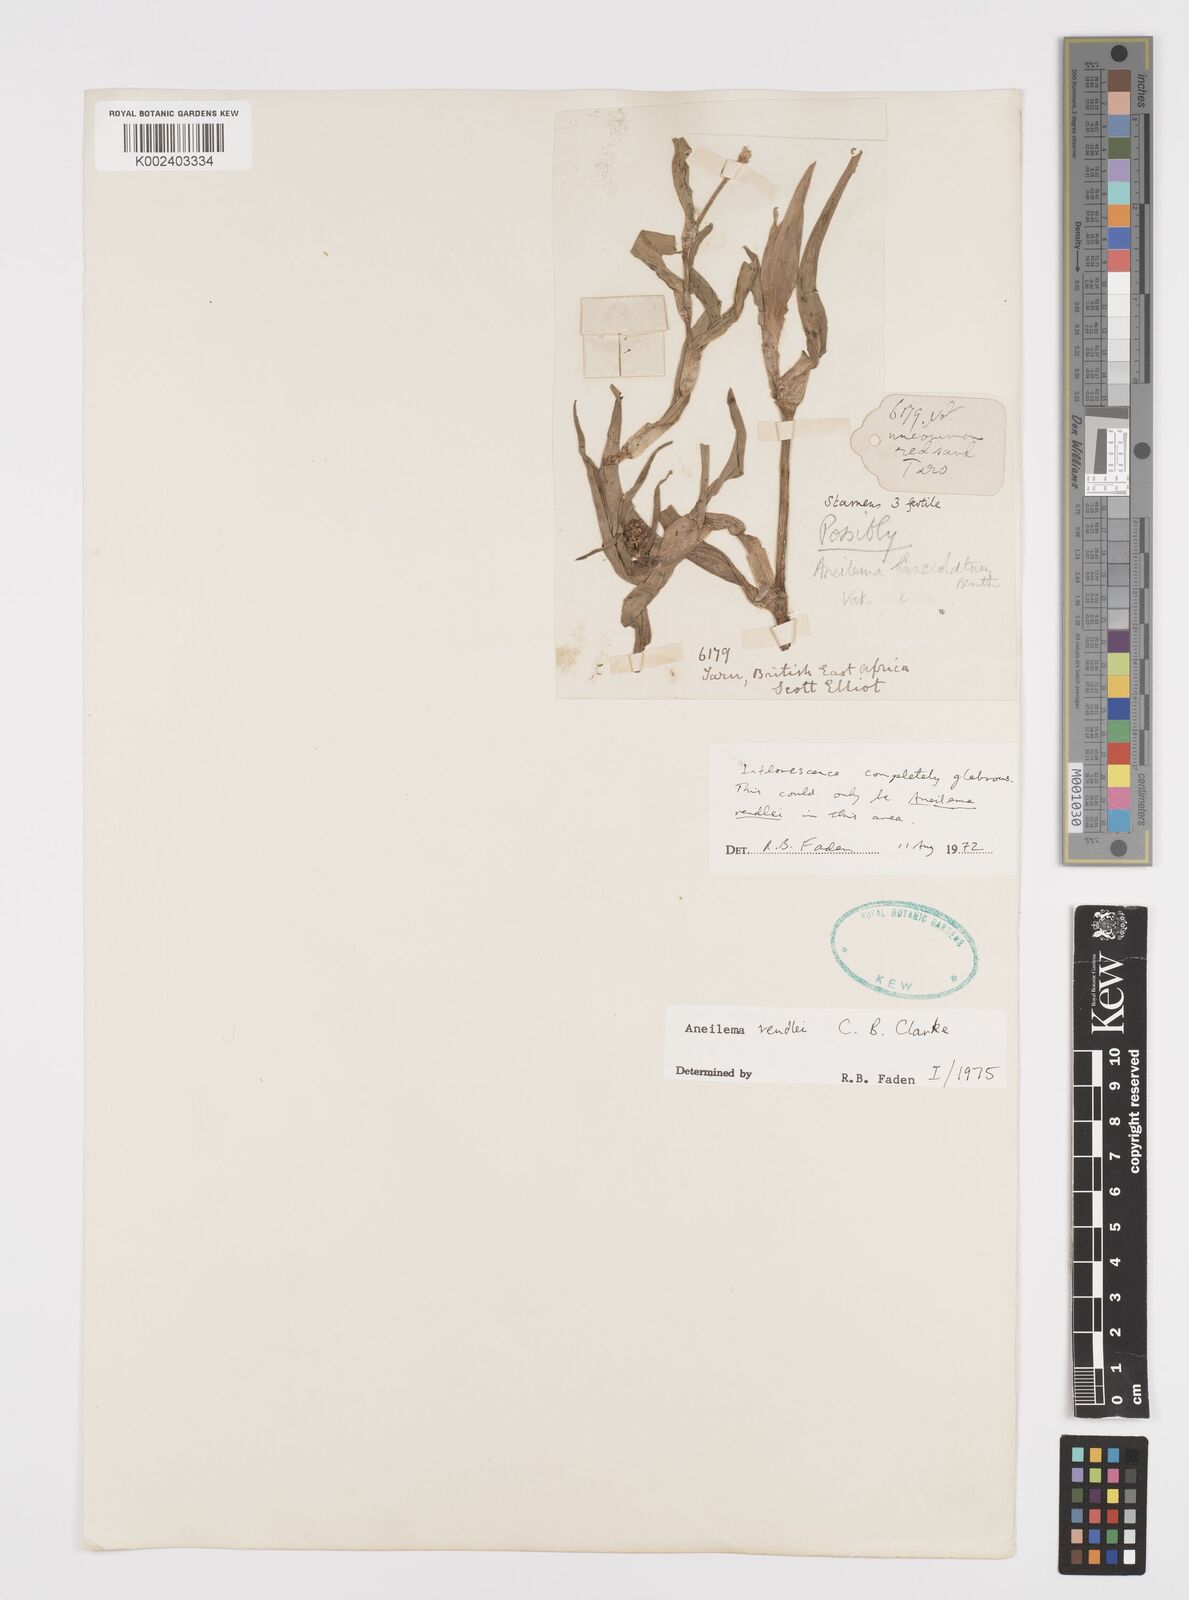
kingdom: Plantae
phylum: Tracheophyta
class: Liliopsida
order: Commelinales
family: Commelinaceae
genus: Aneilema
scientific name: Aneilema rendlei
